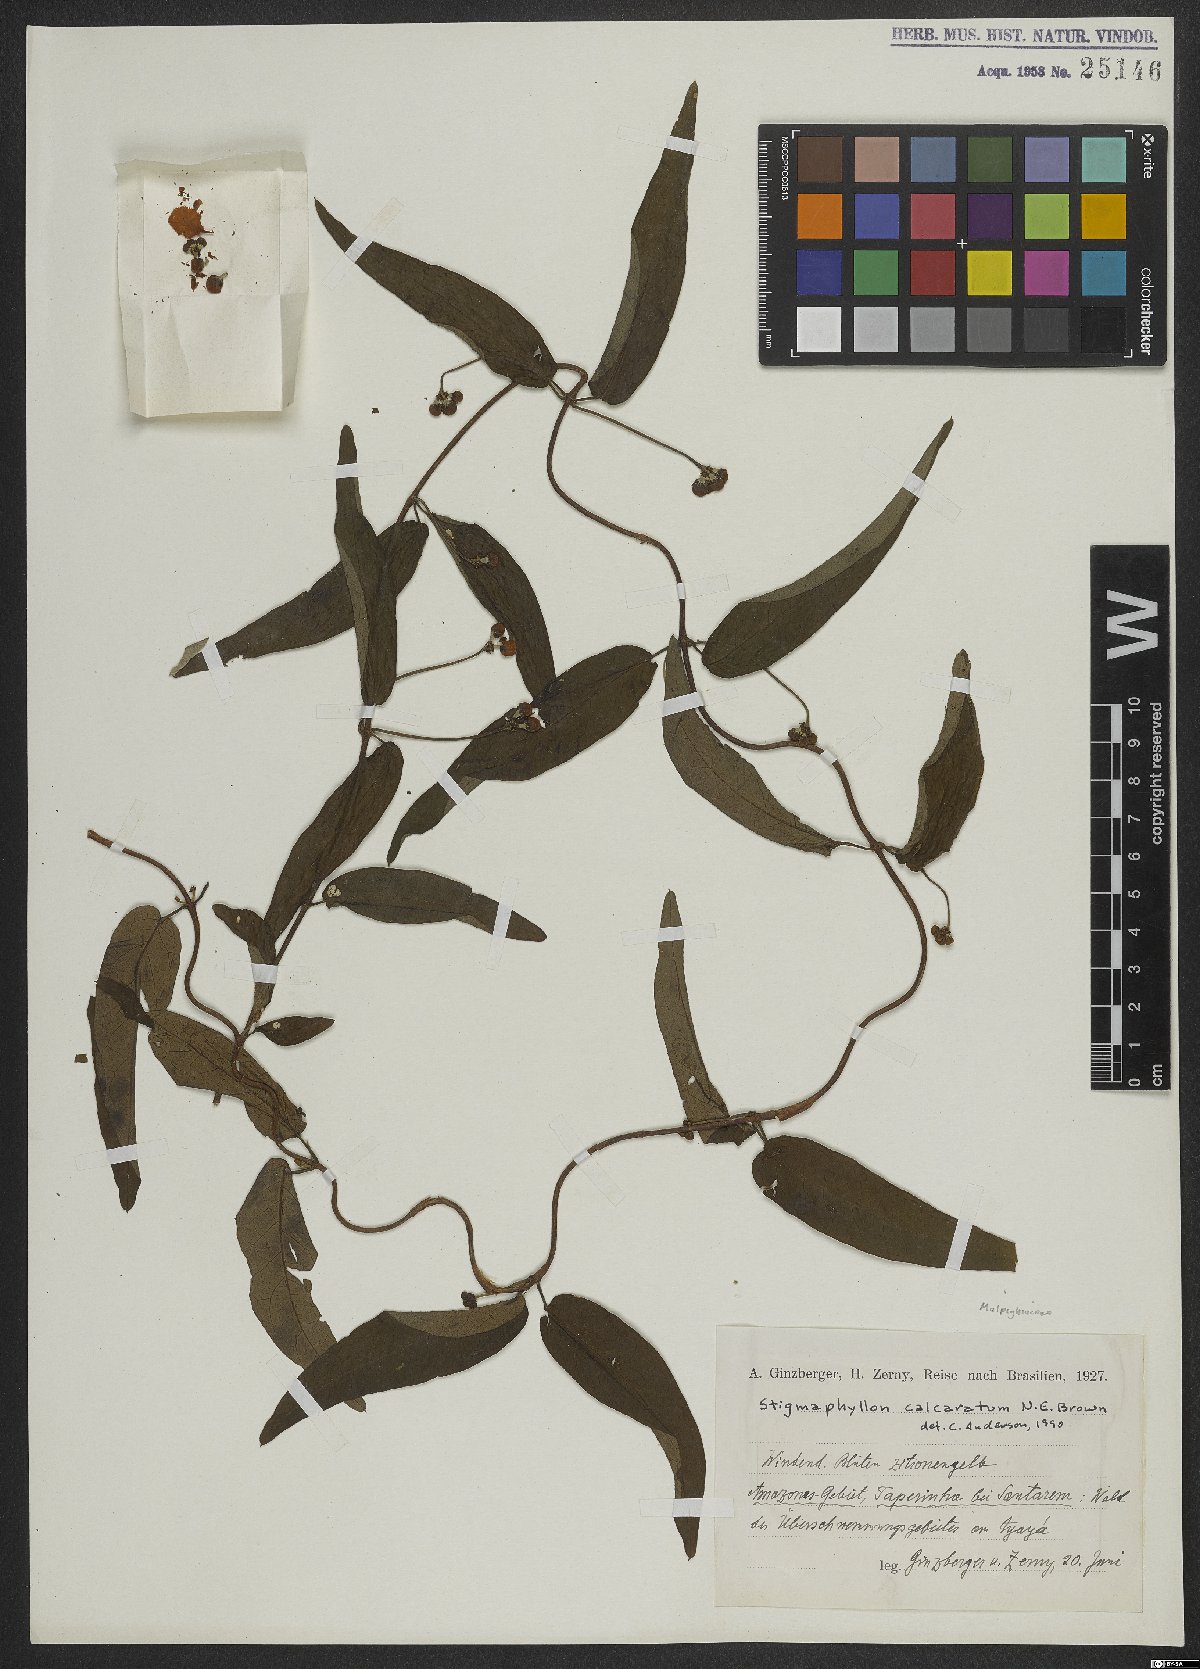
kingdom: Plantae
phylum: Tracheophyta
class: Magnoliopsida
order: Malpighiales
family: Malpighiaceae
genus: Stigmaphyllon
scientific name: Stigmaphyllon calcaratum
